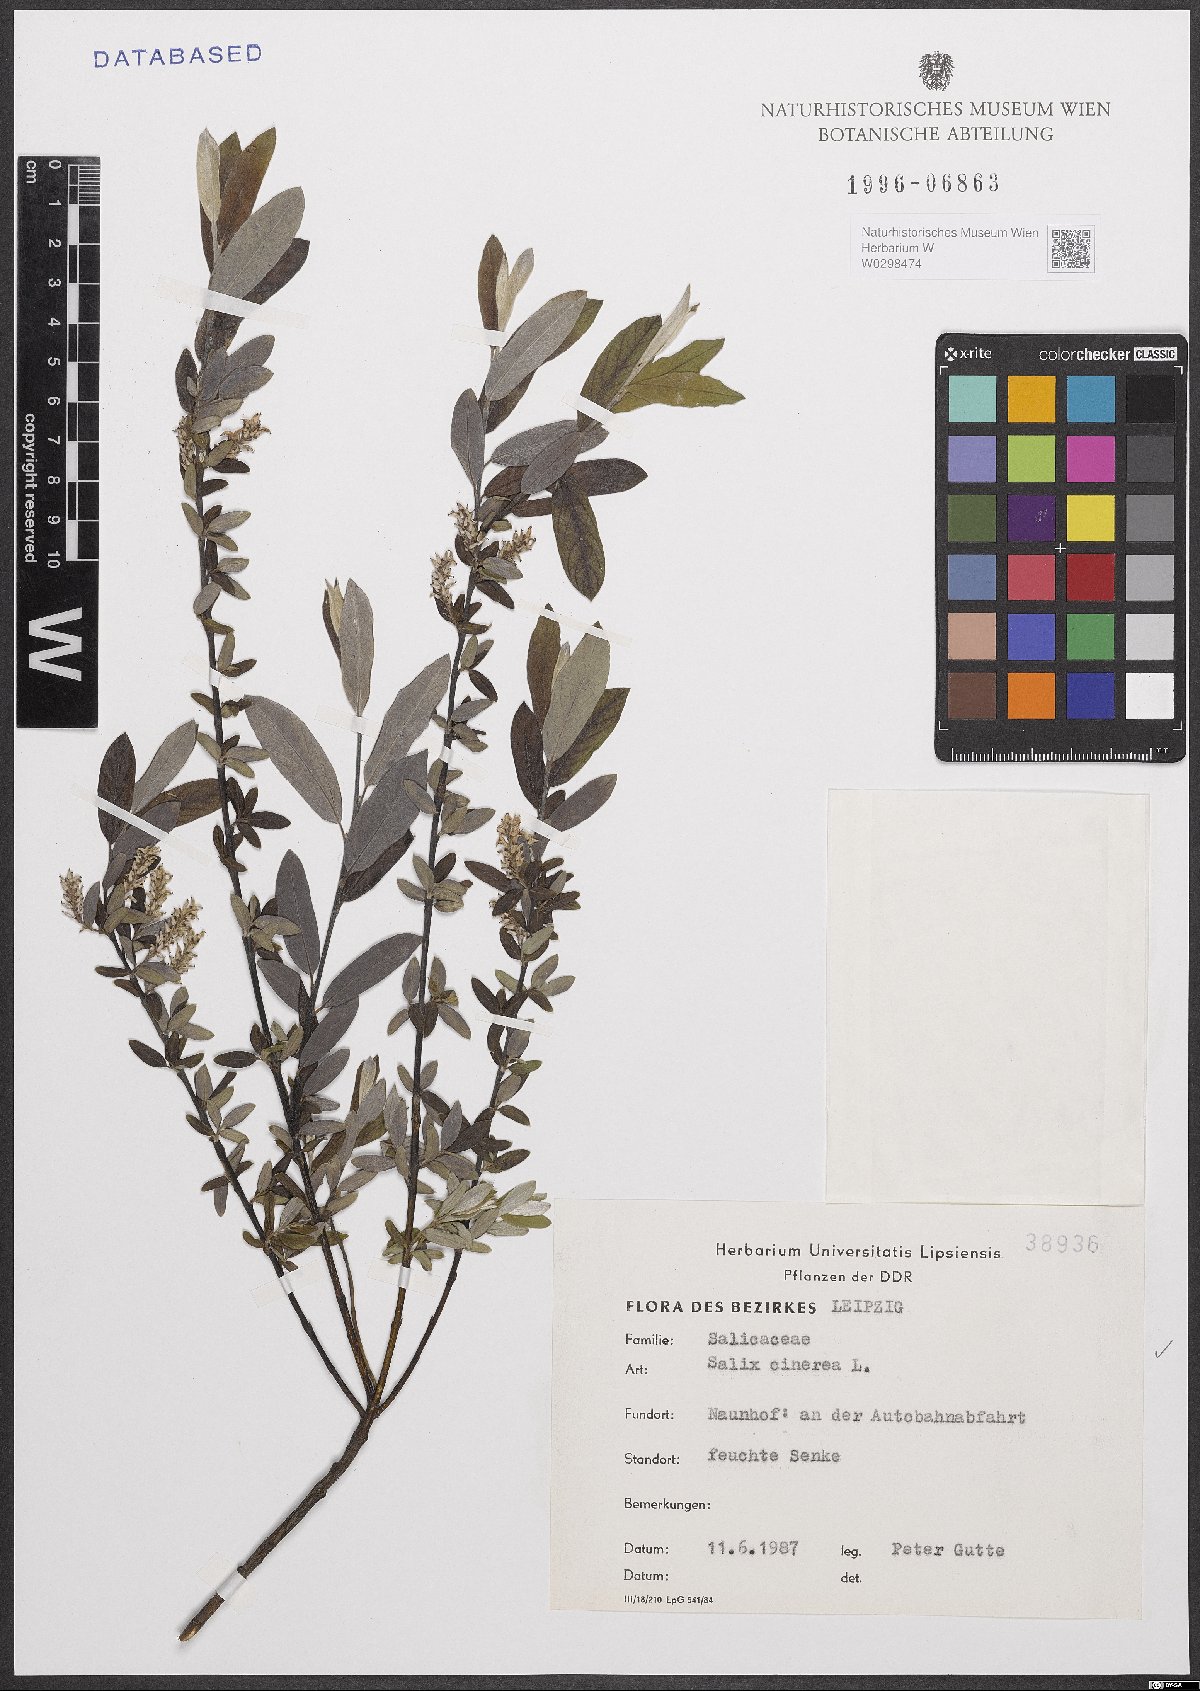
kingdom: Plantae
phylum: Tracheophyta
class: Magnoliopsida
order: Malpighiales
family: Salicaceae
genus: Salix
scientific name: Salix cinerea
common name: Common sallow
